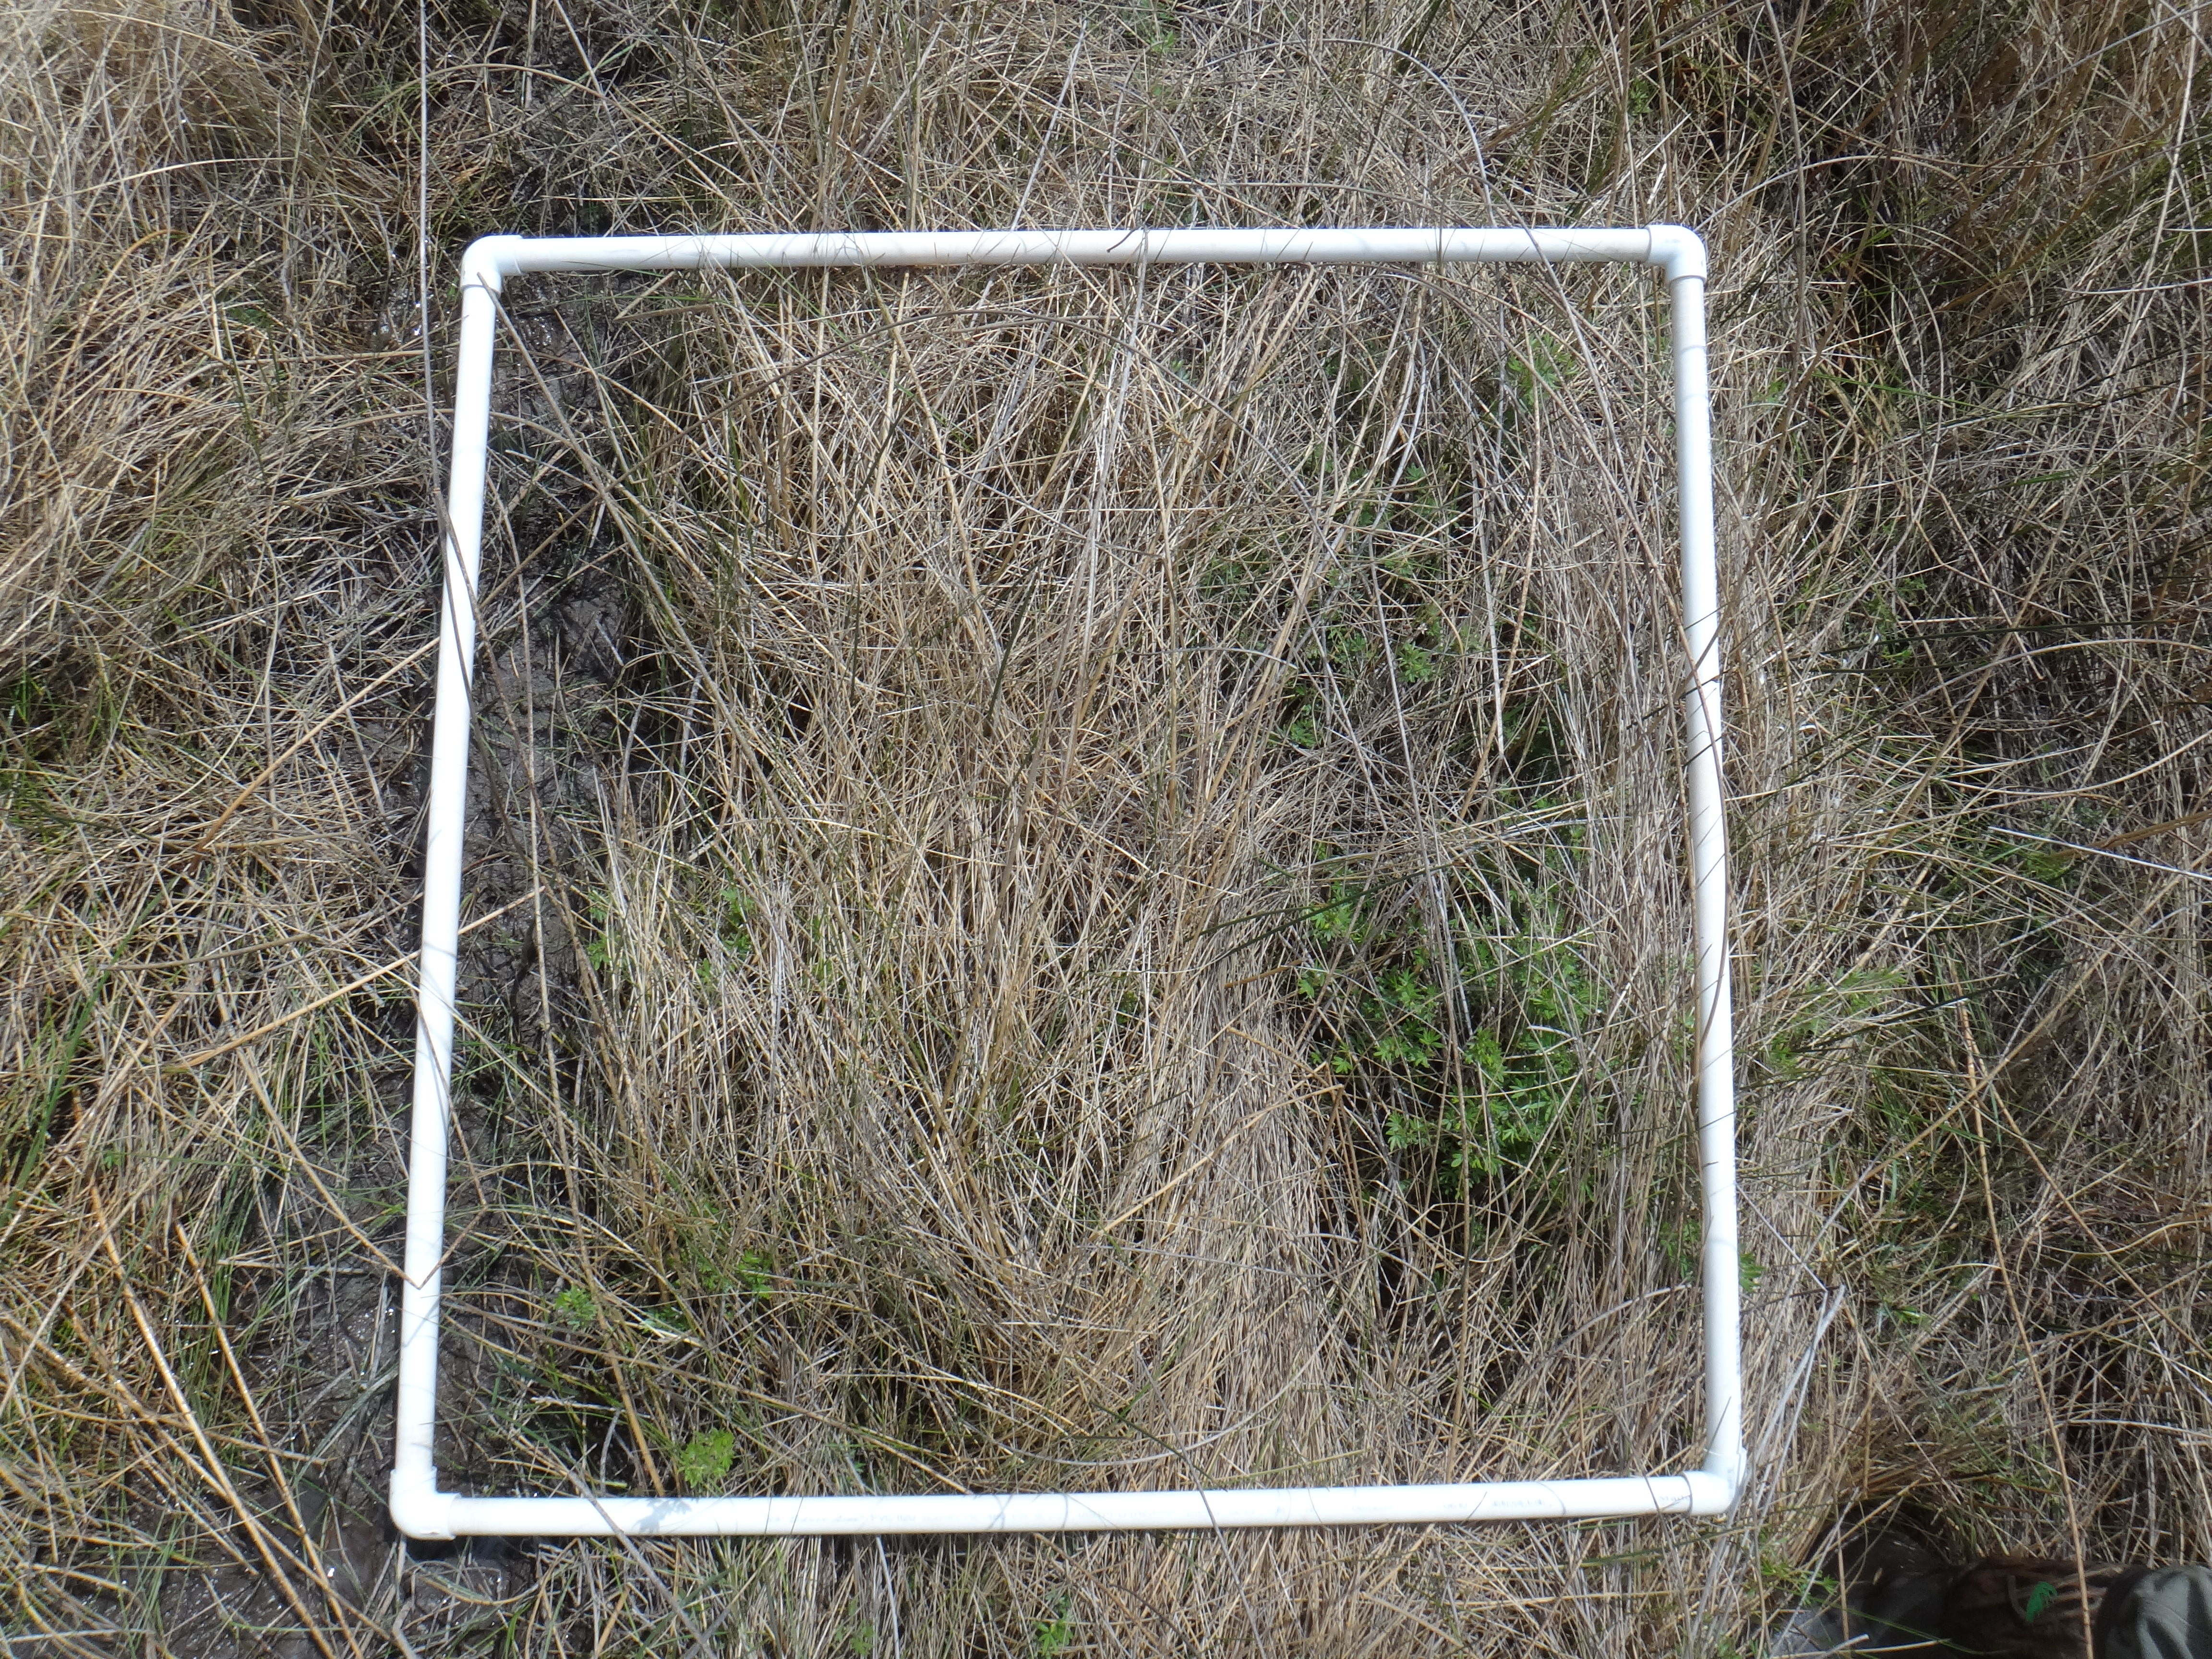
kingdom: Plantae
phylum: Tracheophyta
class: Magnoliopsida
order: Rosales
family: Rosaceae
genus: Dasiphora
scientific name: Dasiphora fruticosa
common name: Shrubby cinquefoil
